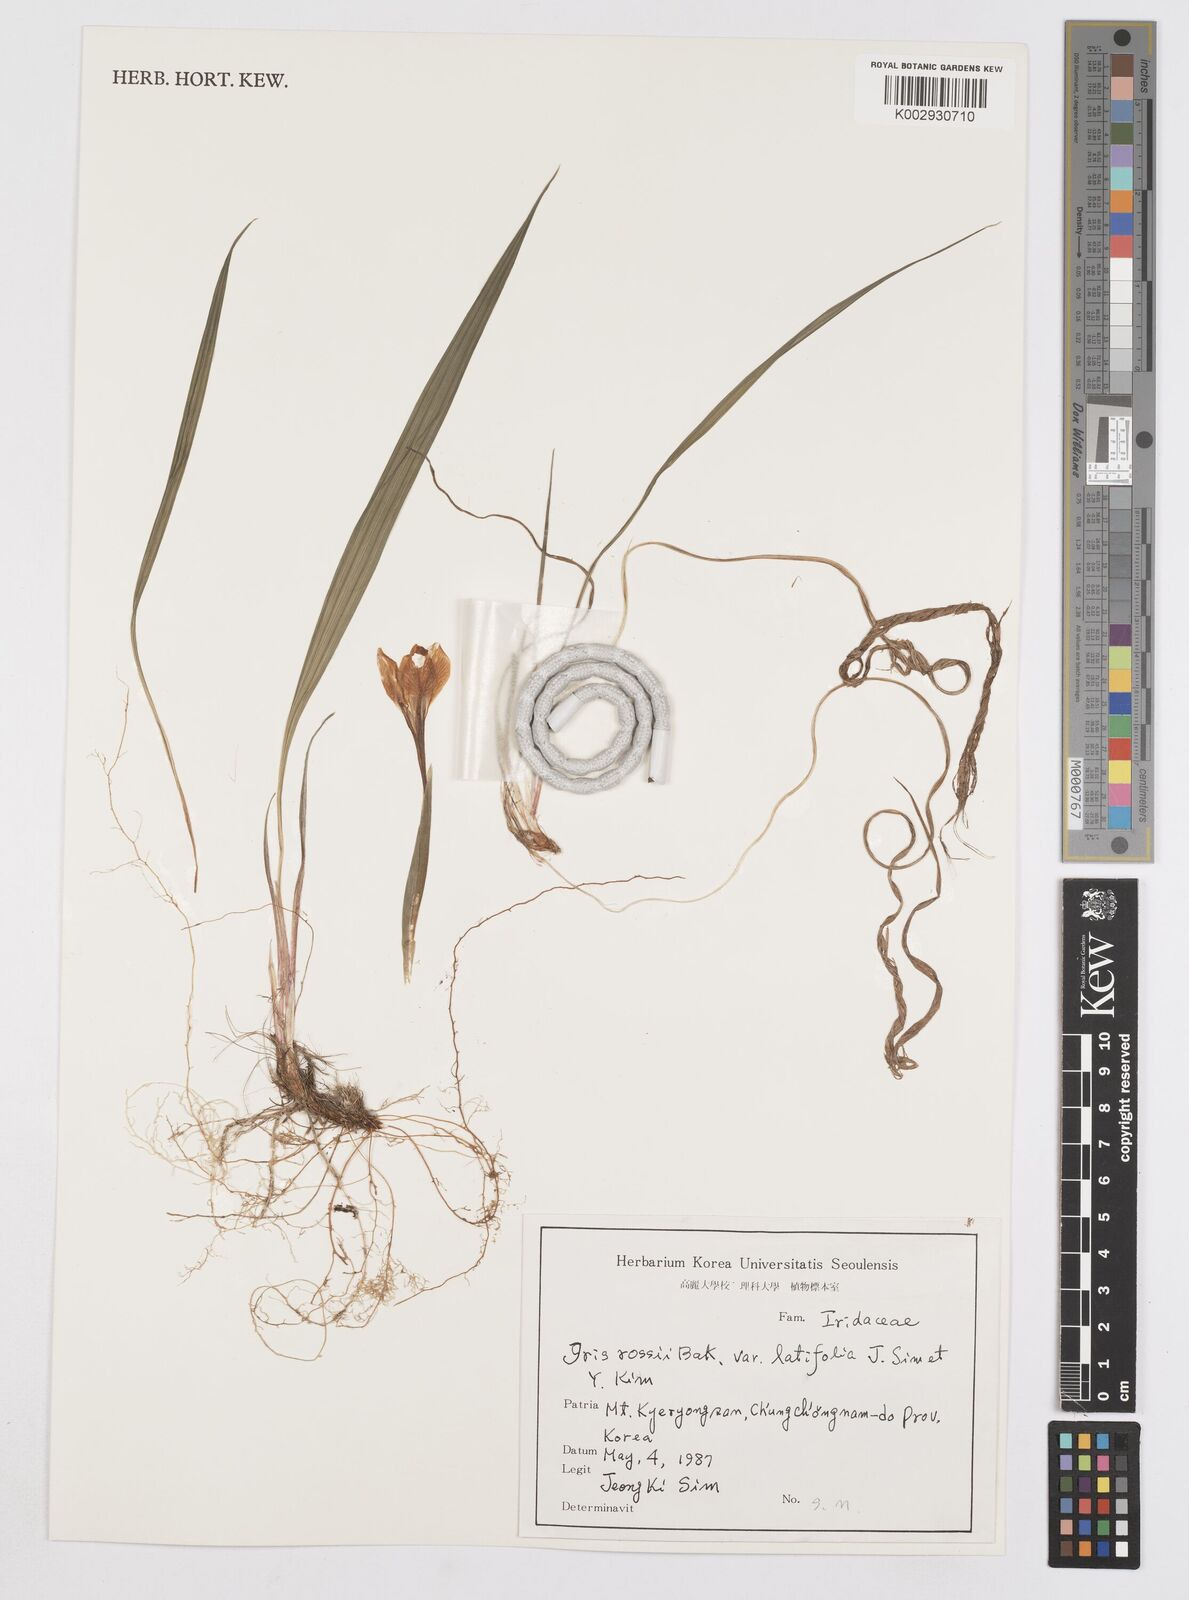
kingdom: Plantae
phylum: Tracheophyta
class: Liliopsida
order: Asparagales
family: Iridaceae
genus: Iris
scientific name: Iris rossii
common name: Long-tail iris
